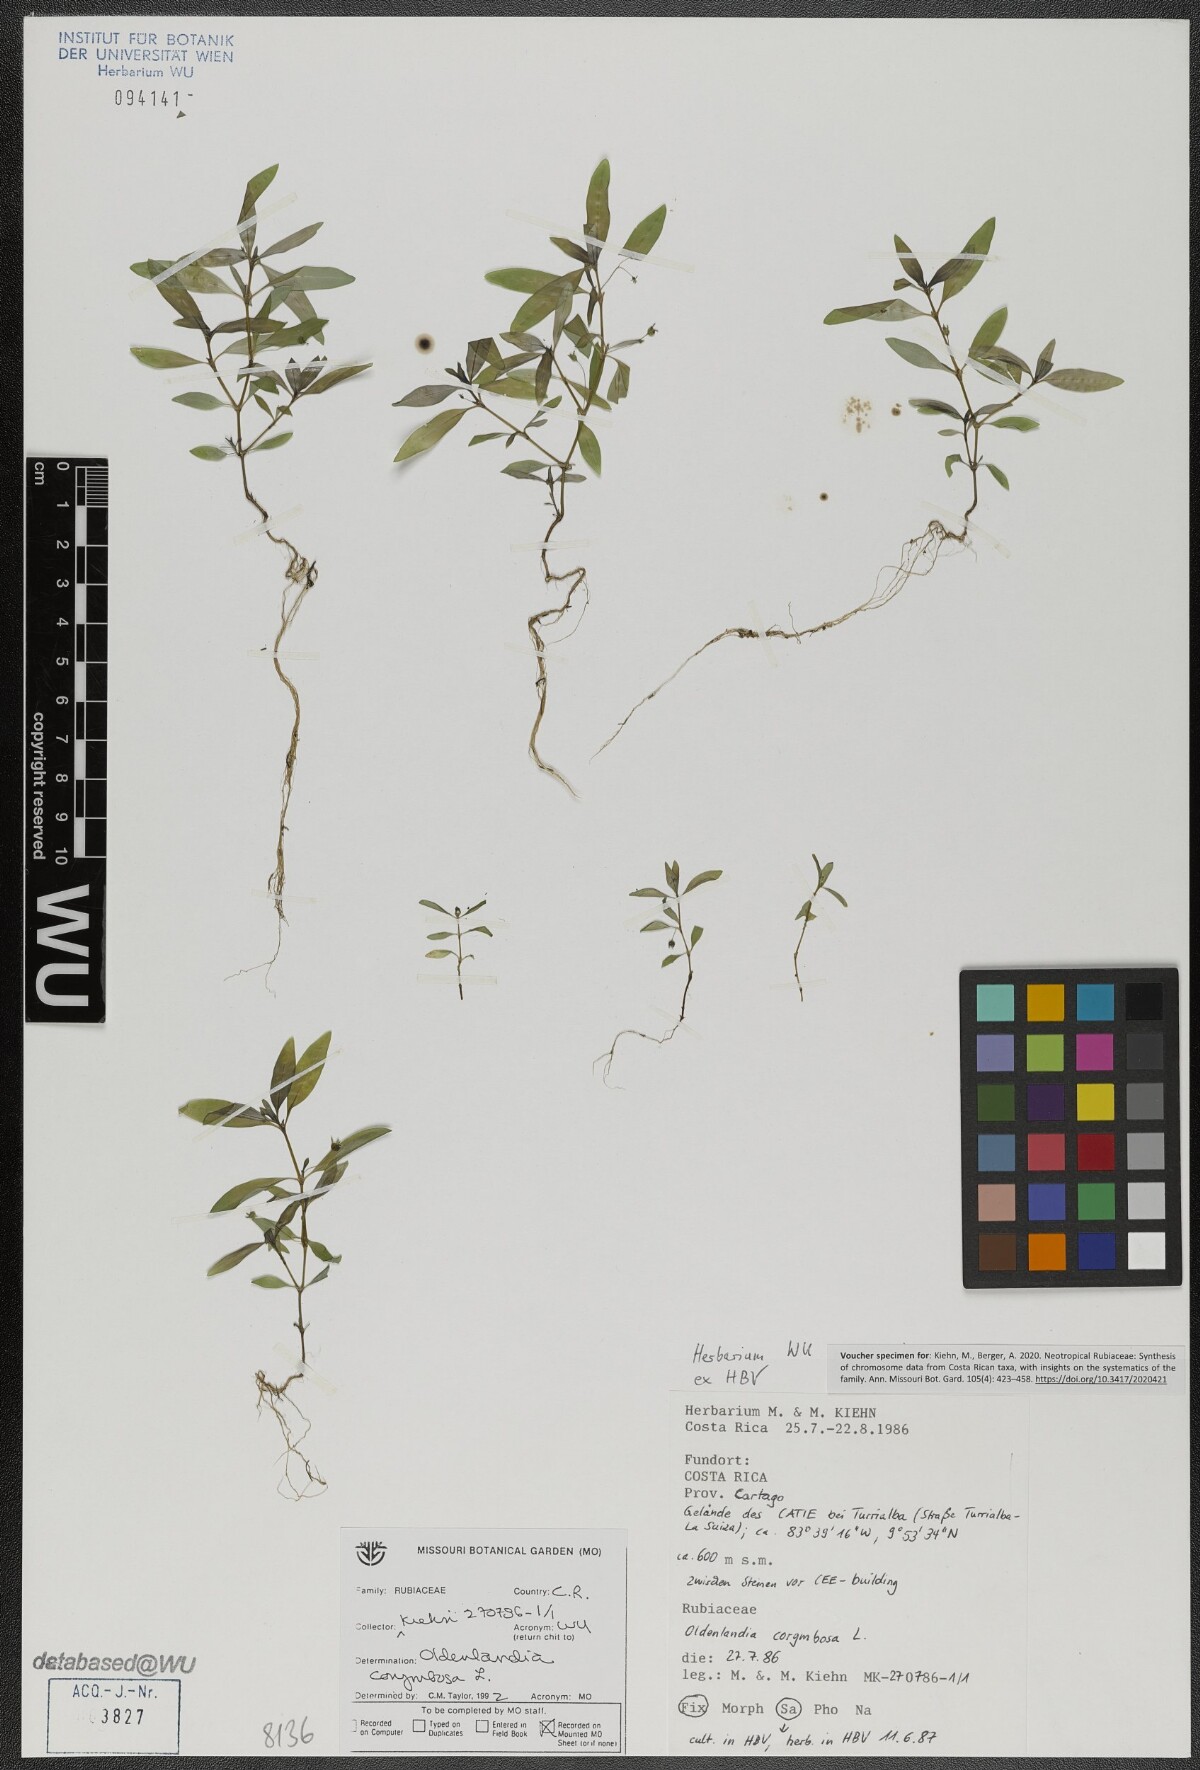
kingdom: Plantae
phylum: Tracheophyta
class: Magnoliopsida
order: Gentianales
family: Rubiaceae
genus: Oldenlandia
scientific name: Oldenlandia corymbosa
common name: Flat-top mille graines
